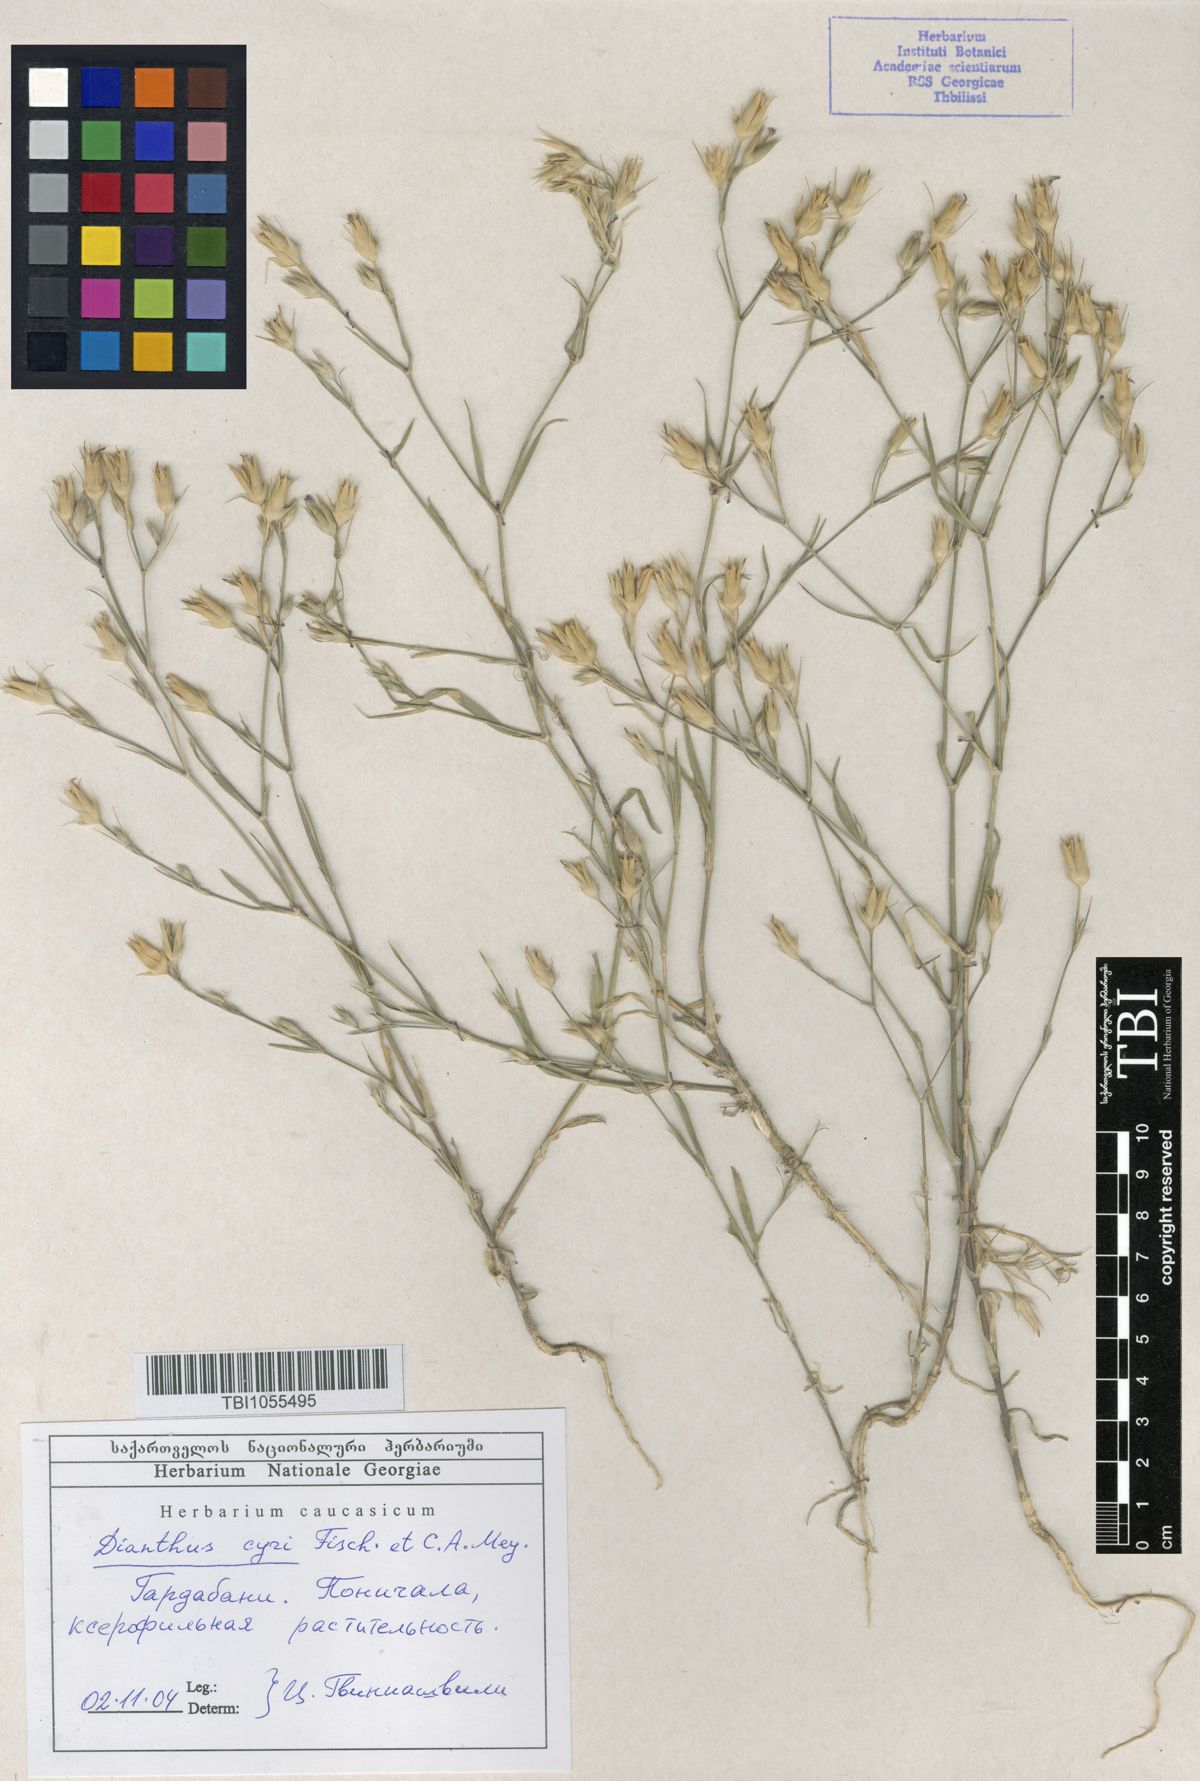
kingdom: Plantae
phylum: Tracheophyta
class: Magnoliopsida
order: Caryophyllales
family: Caryophyllaceae
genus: Dianthus
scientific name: Dianthus cyri
